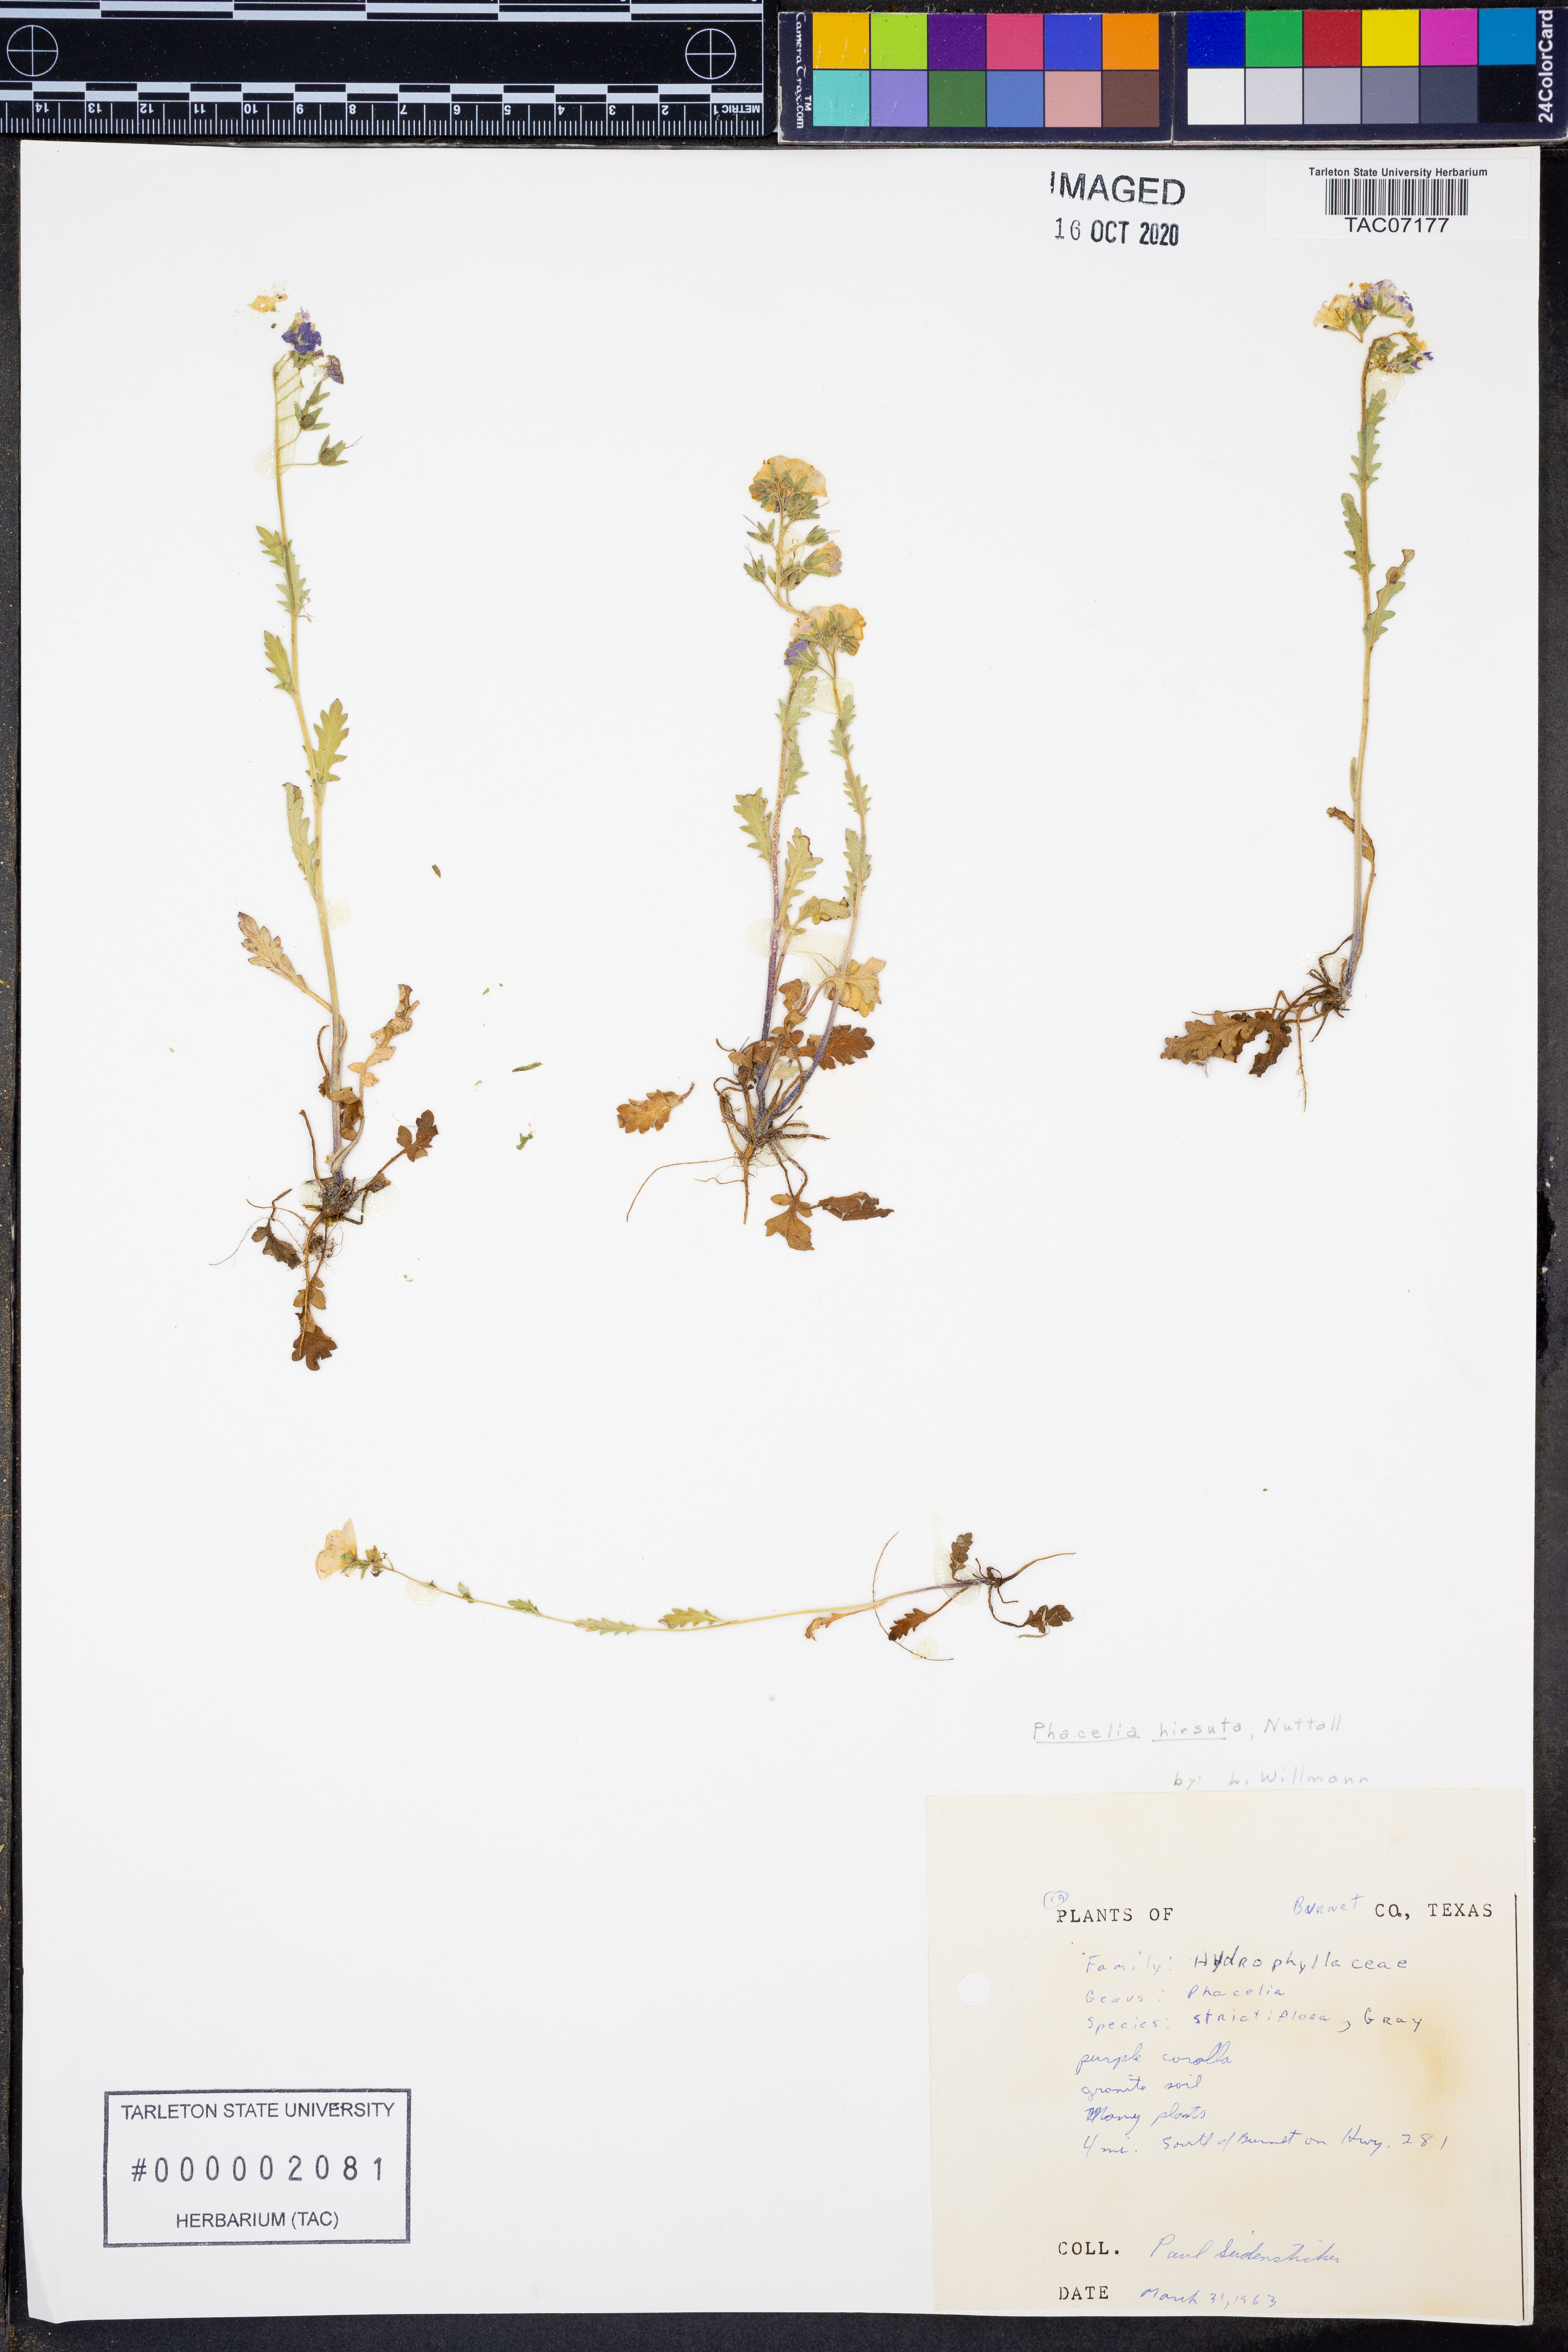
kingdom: Plantae
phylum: Tracheophyta
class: Magnoliopsida
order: Boraginales
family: Hydrophyllaceae
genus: Phacelia
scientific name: Phacelia hirsuta
